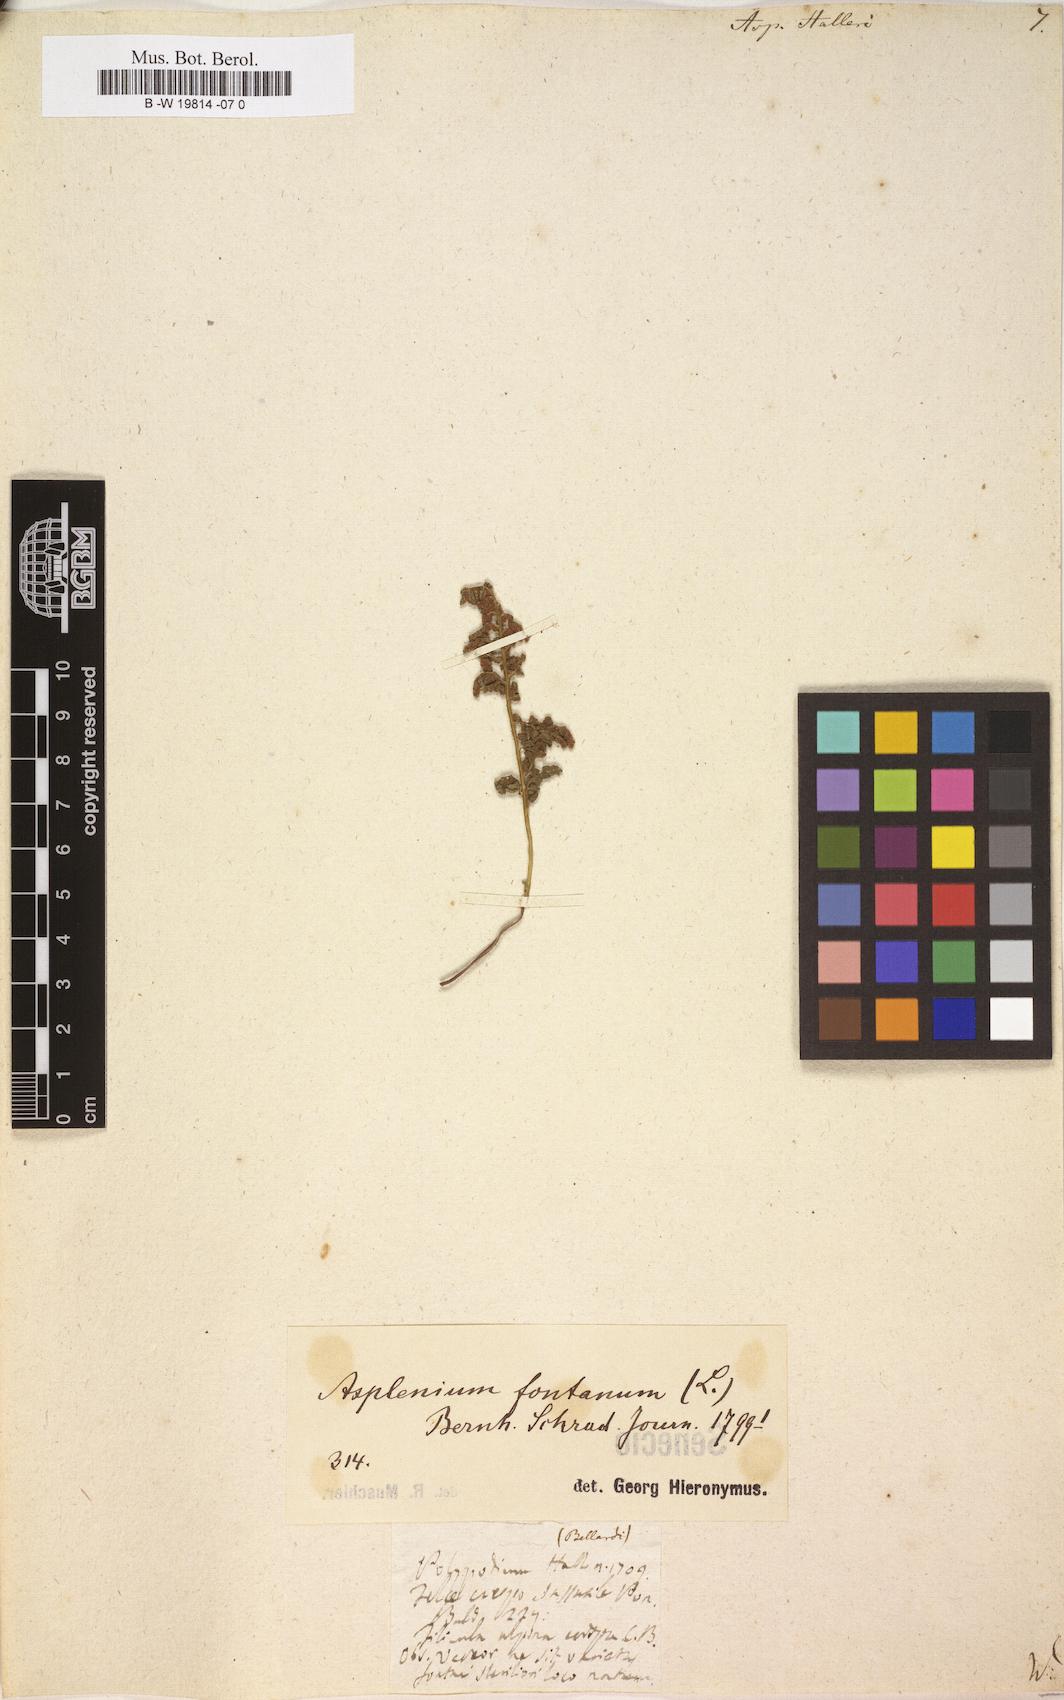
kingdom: Plantae
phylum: Tracheophyta
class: Polypodiopsida
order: Polypodiales
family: Aspleniaceae
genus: Asplenium
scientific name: Asplenium fontanum
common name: Fountain spleenwort
